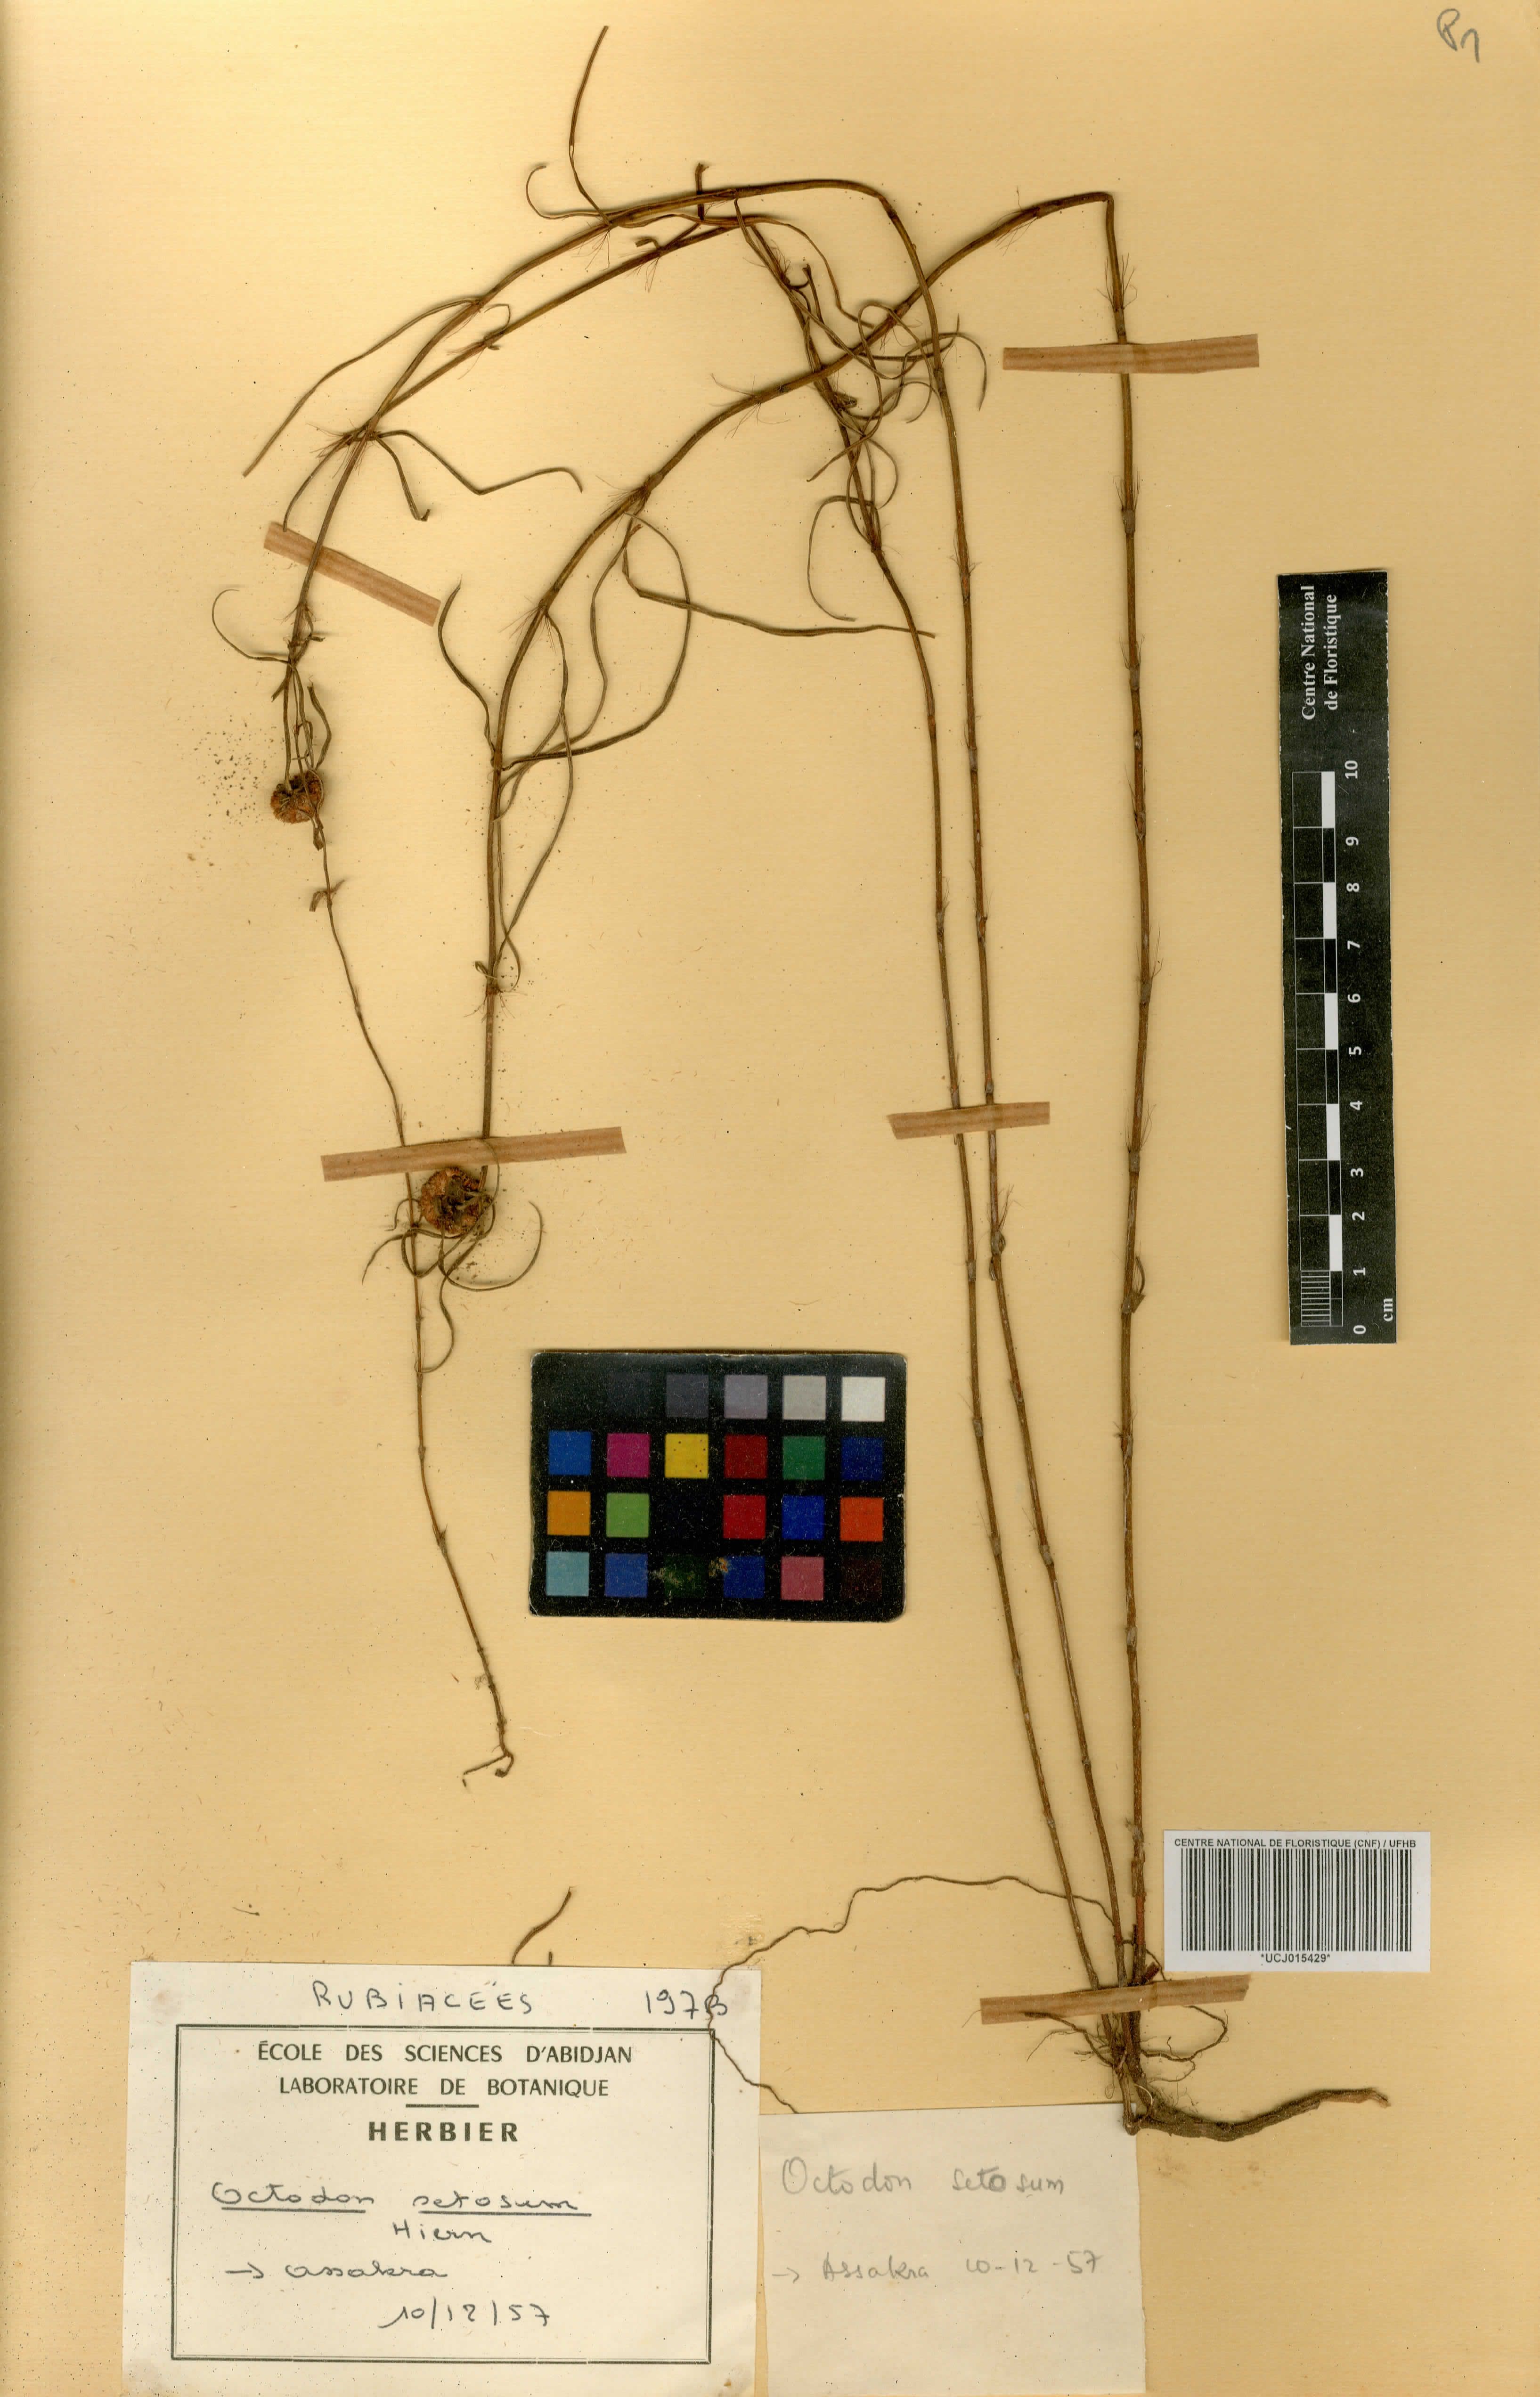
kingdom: Plantae
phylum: Tracheophyta
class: Magnoliopsida
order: Gentianales
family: Rubiaceae
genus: Spermacoce
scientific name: Spermacoce octodon
